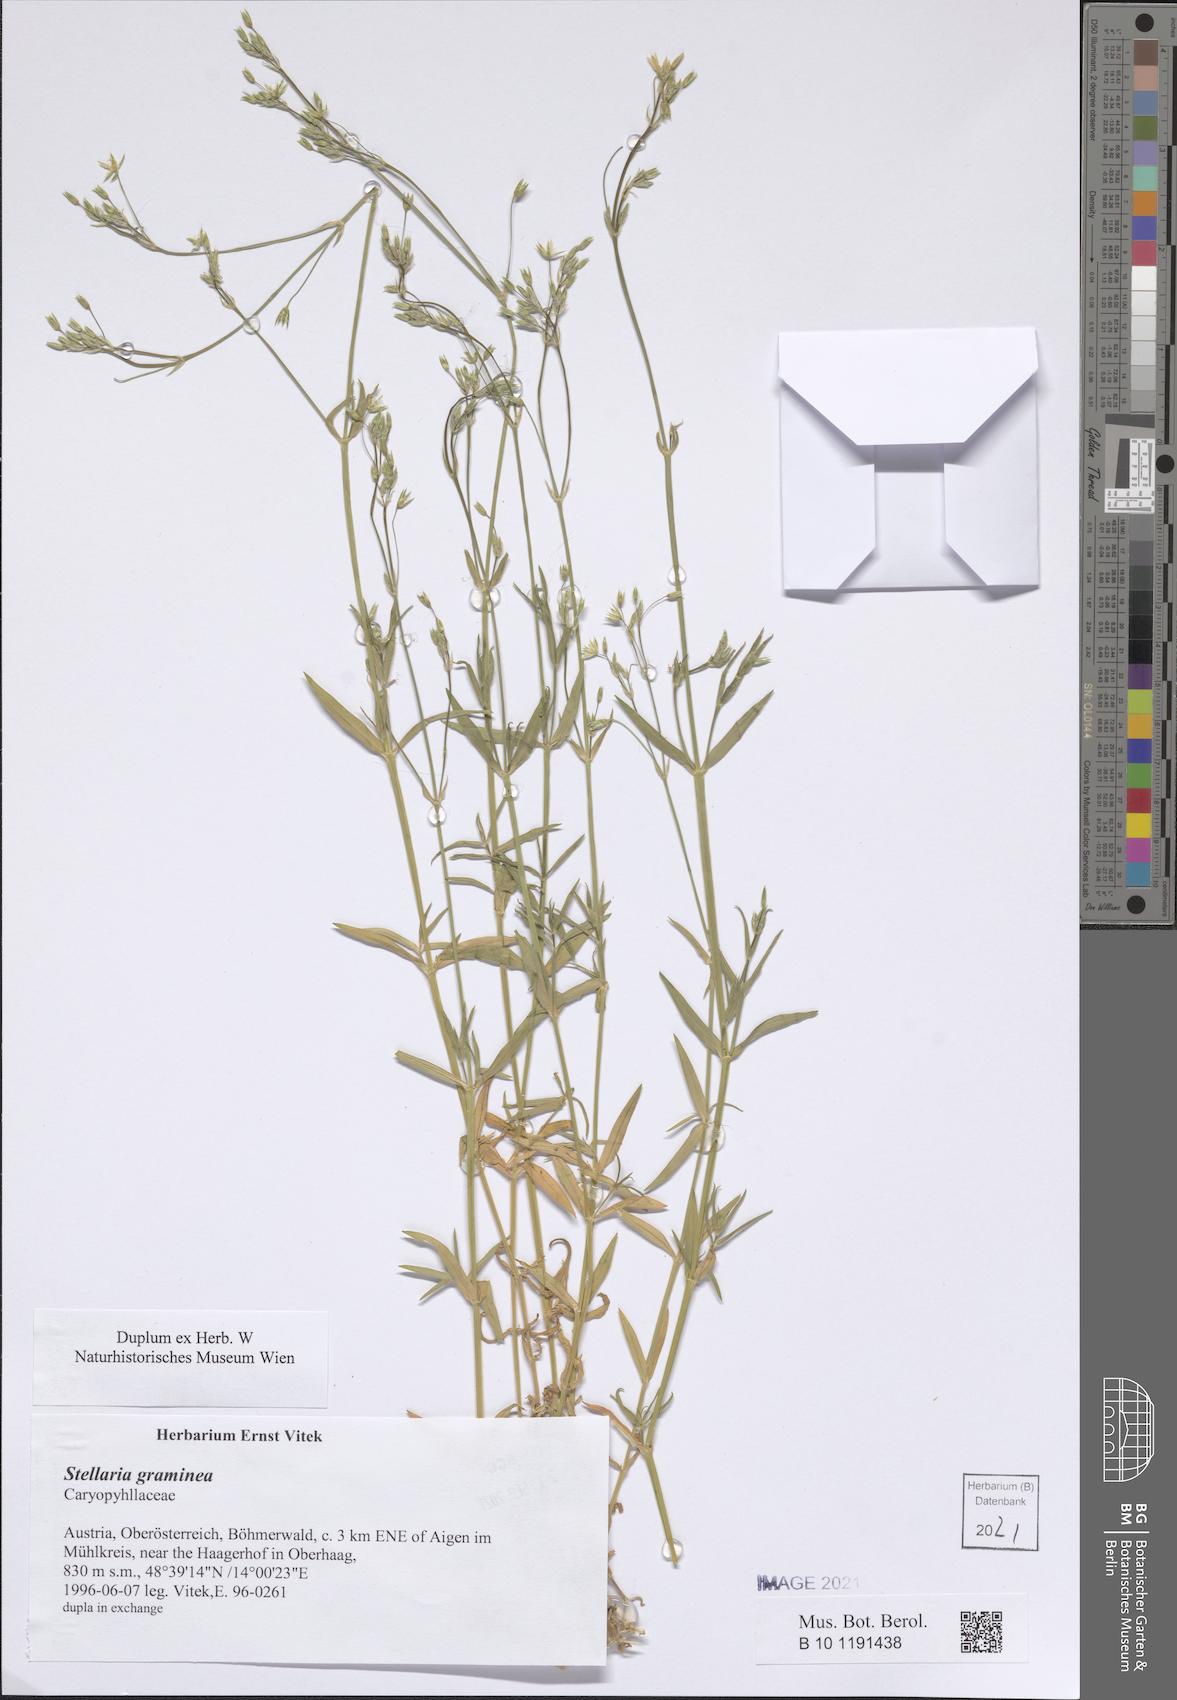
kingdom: Plantae
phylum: Tracheophyta
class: Magnoliopsida
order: Caryophyllales
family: Caryophyllaceae
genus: Stellaria
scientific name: Stellaria graminea
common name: Grass-like starwort
